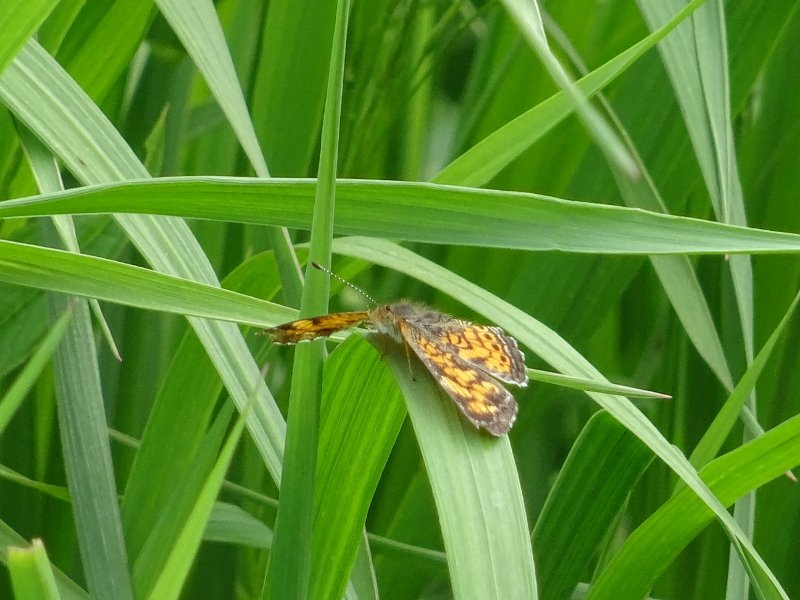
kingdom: Animalia
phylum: Arthropoda
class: Insecta
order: Lepidoptera
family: Nymphalidae
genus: Phyciodes
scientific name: Phyciodes tharos
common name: Pearl Crescent
